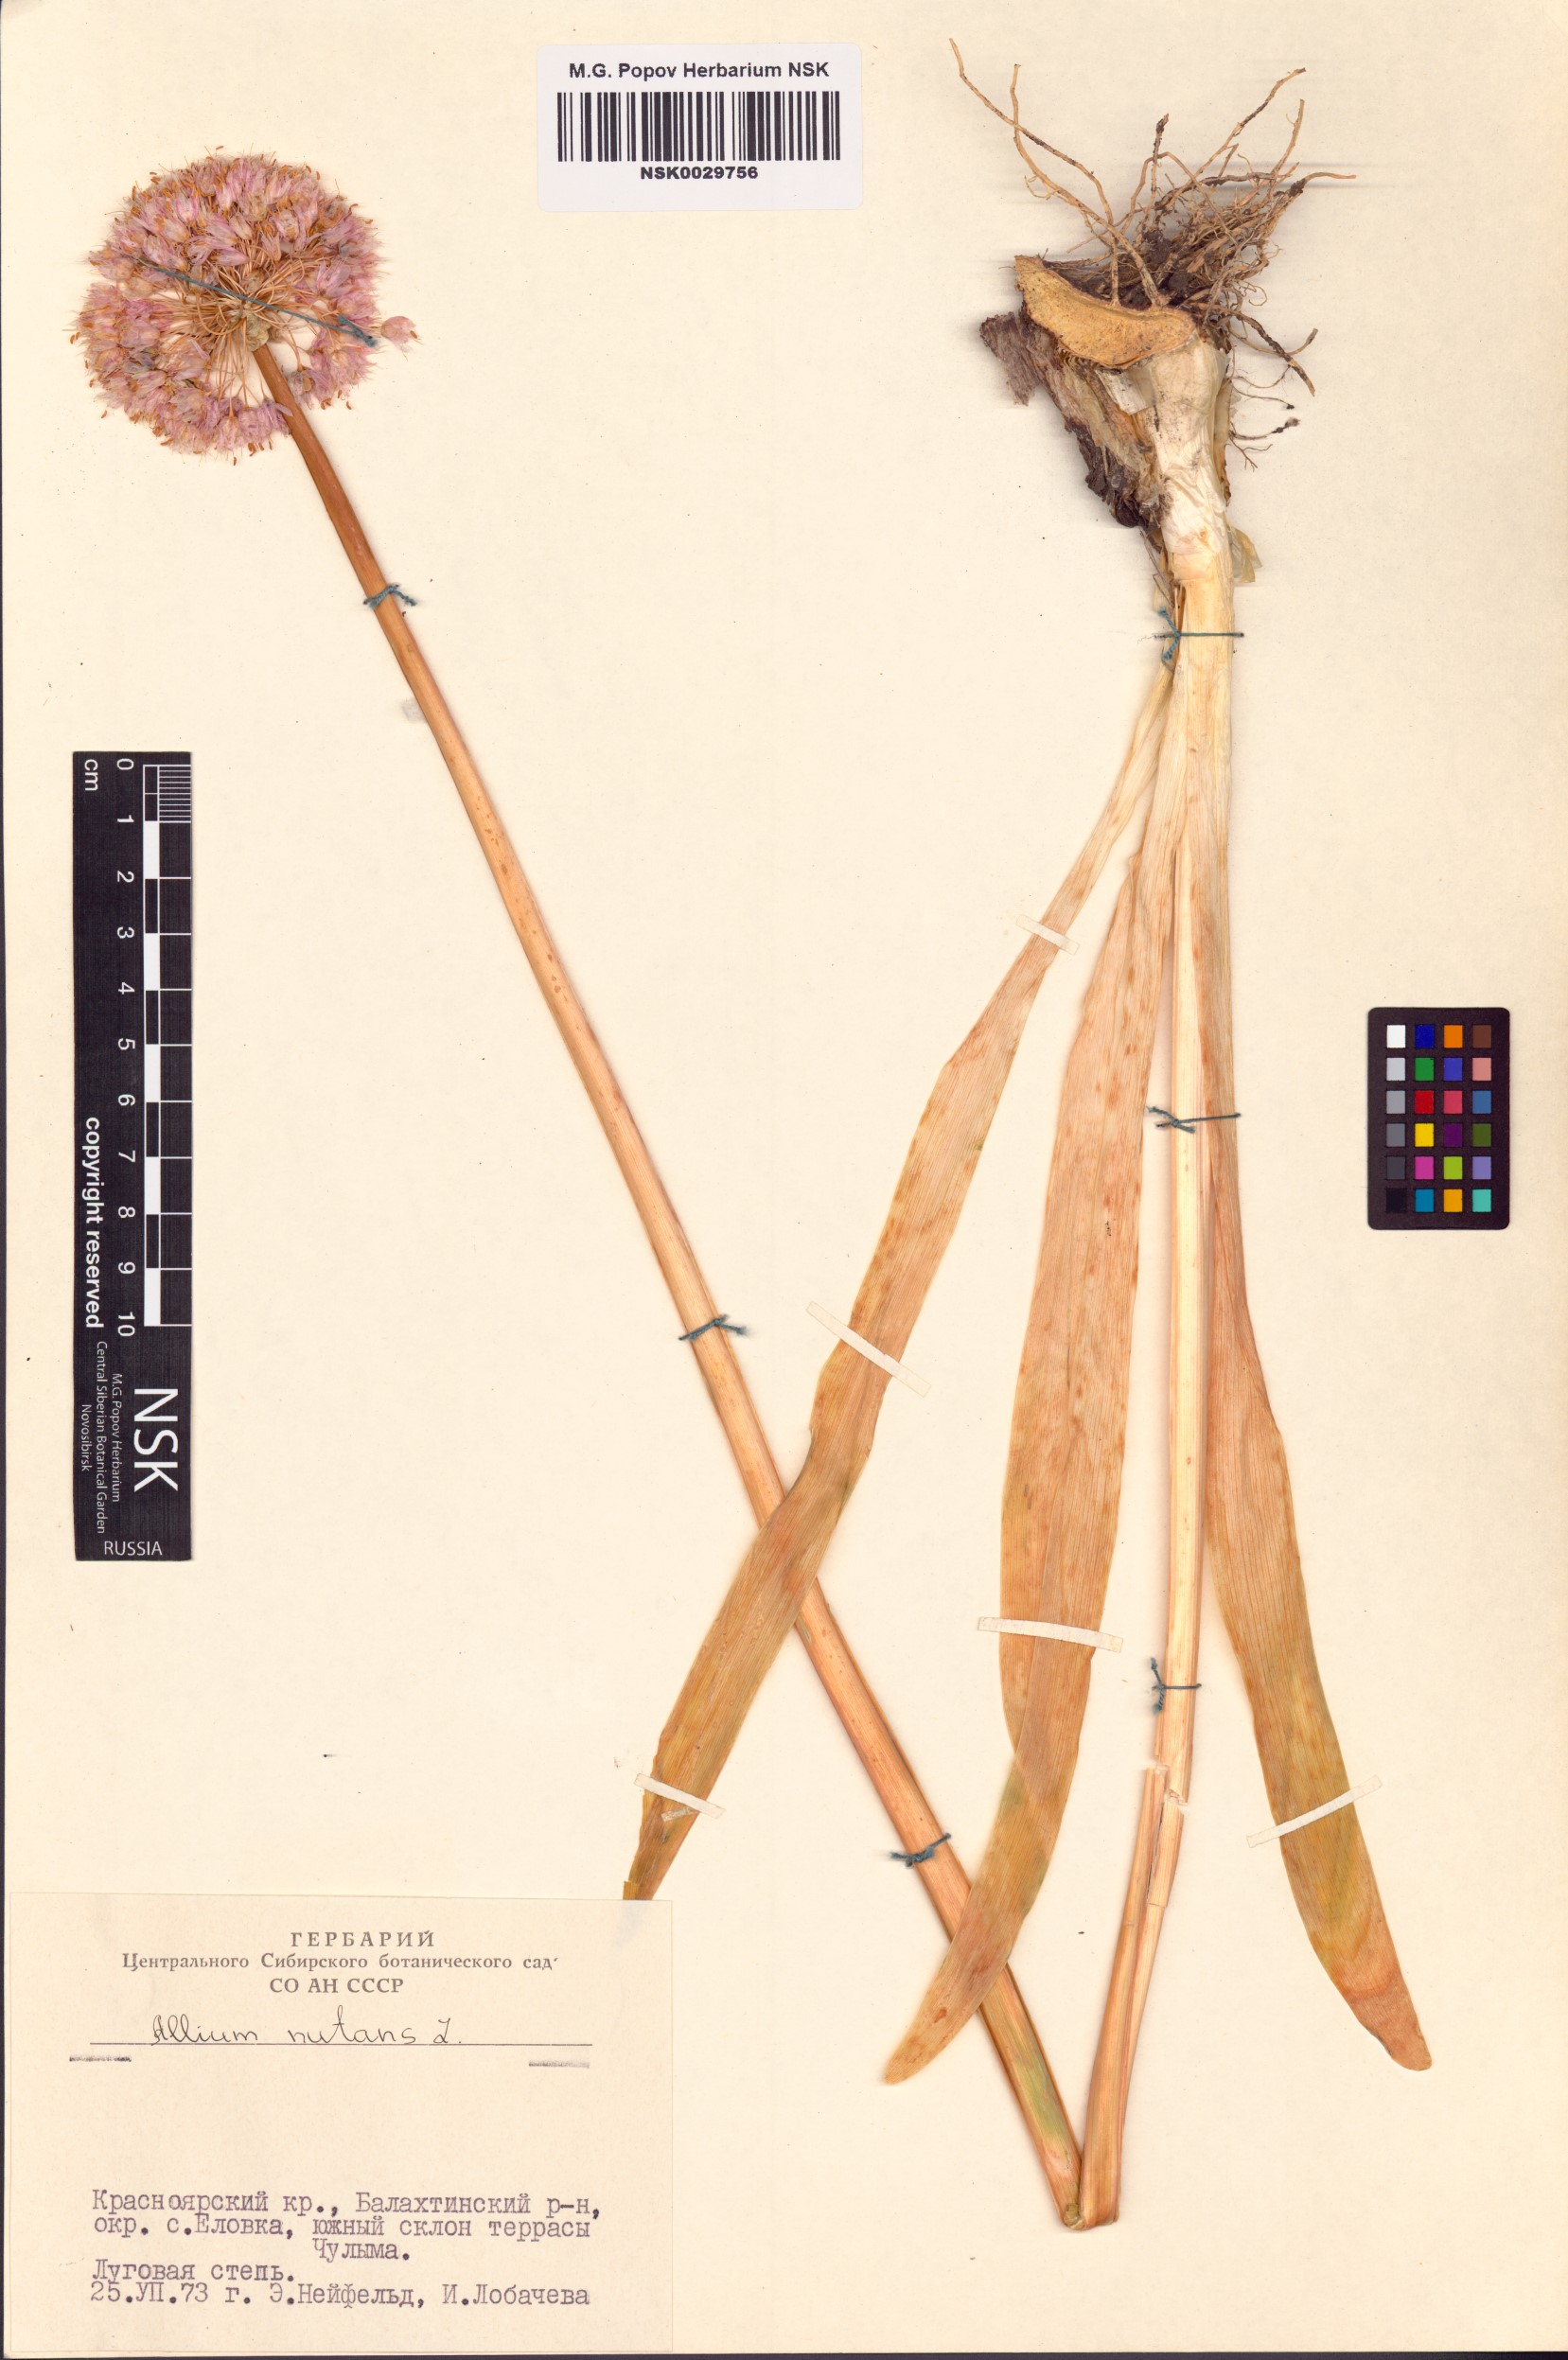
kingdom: Plantae
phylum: Tracheophyta
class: Liliopsida
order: Asparagales
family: Amaryllidaceae
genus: Allium
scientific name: Allium nutans
